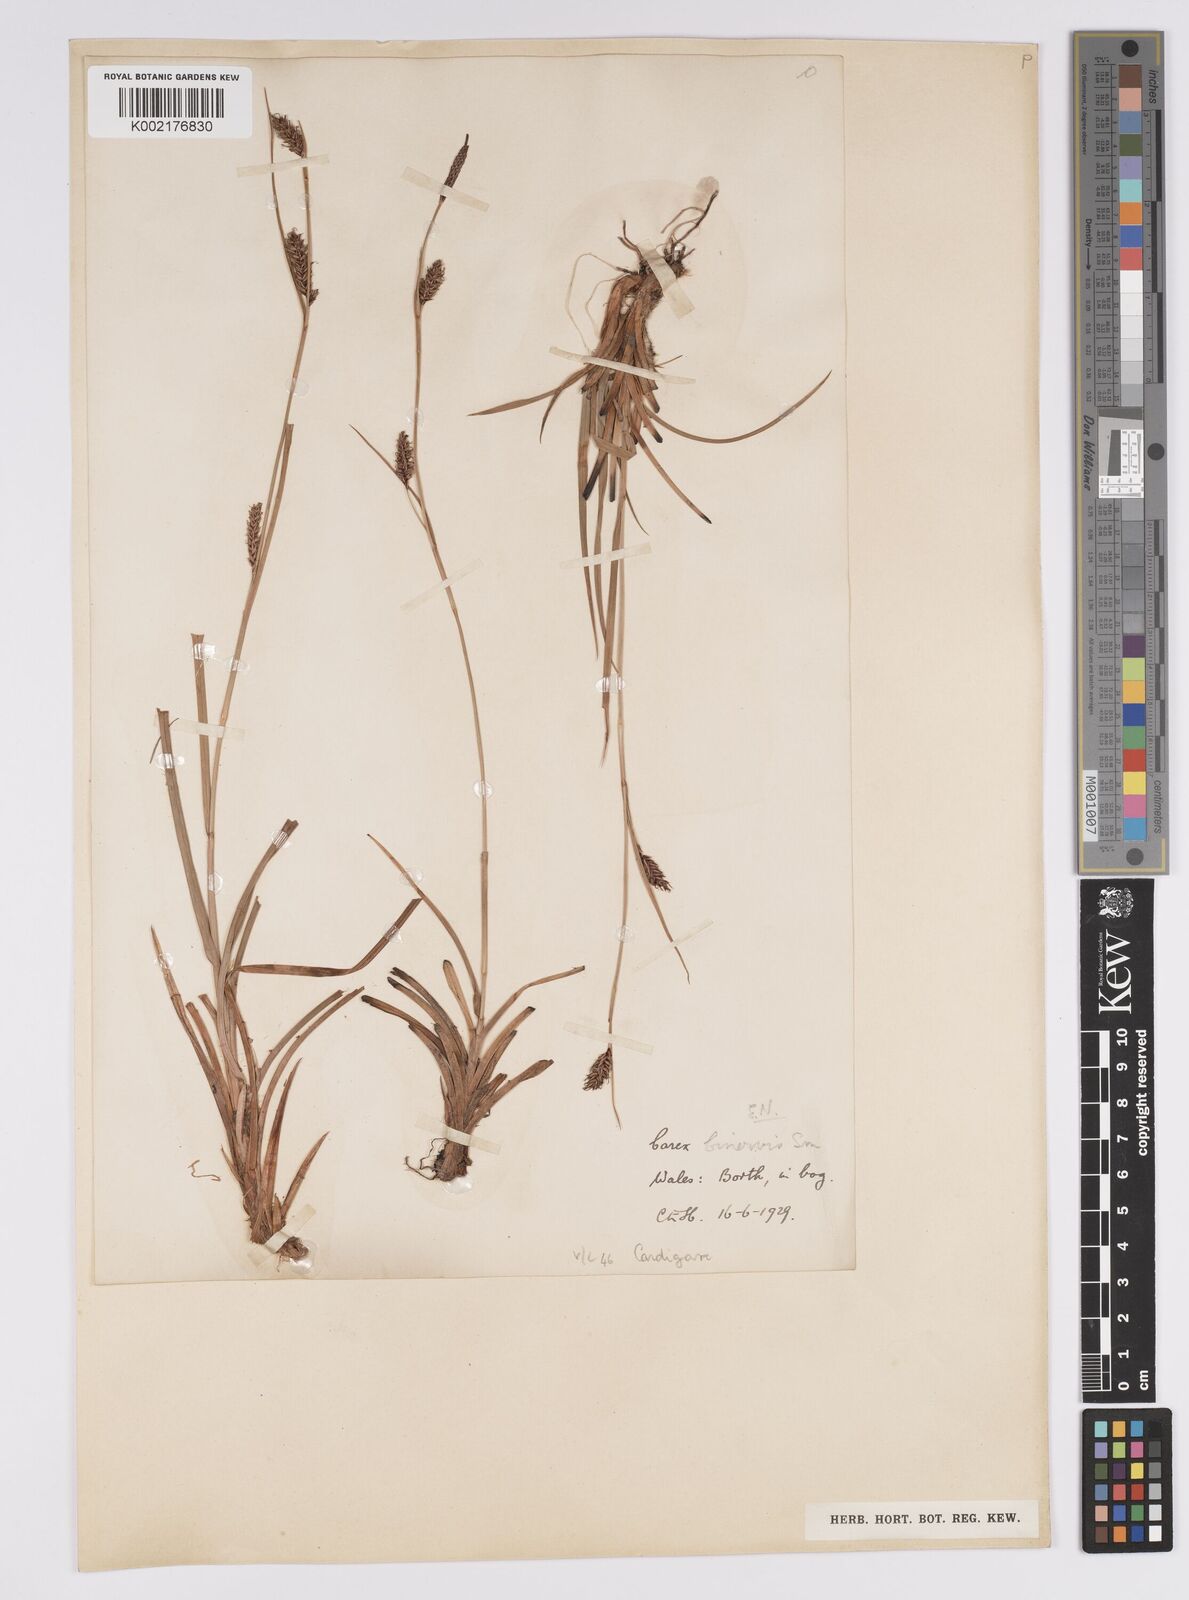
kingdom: Plantae
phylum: Tracheophyta
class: Liliopsida
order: Poales
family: Cyperaceae
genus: Carex
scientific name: Carex binervis
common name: Green-ribbed sedge
